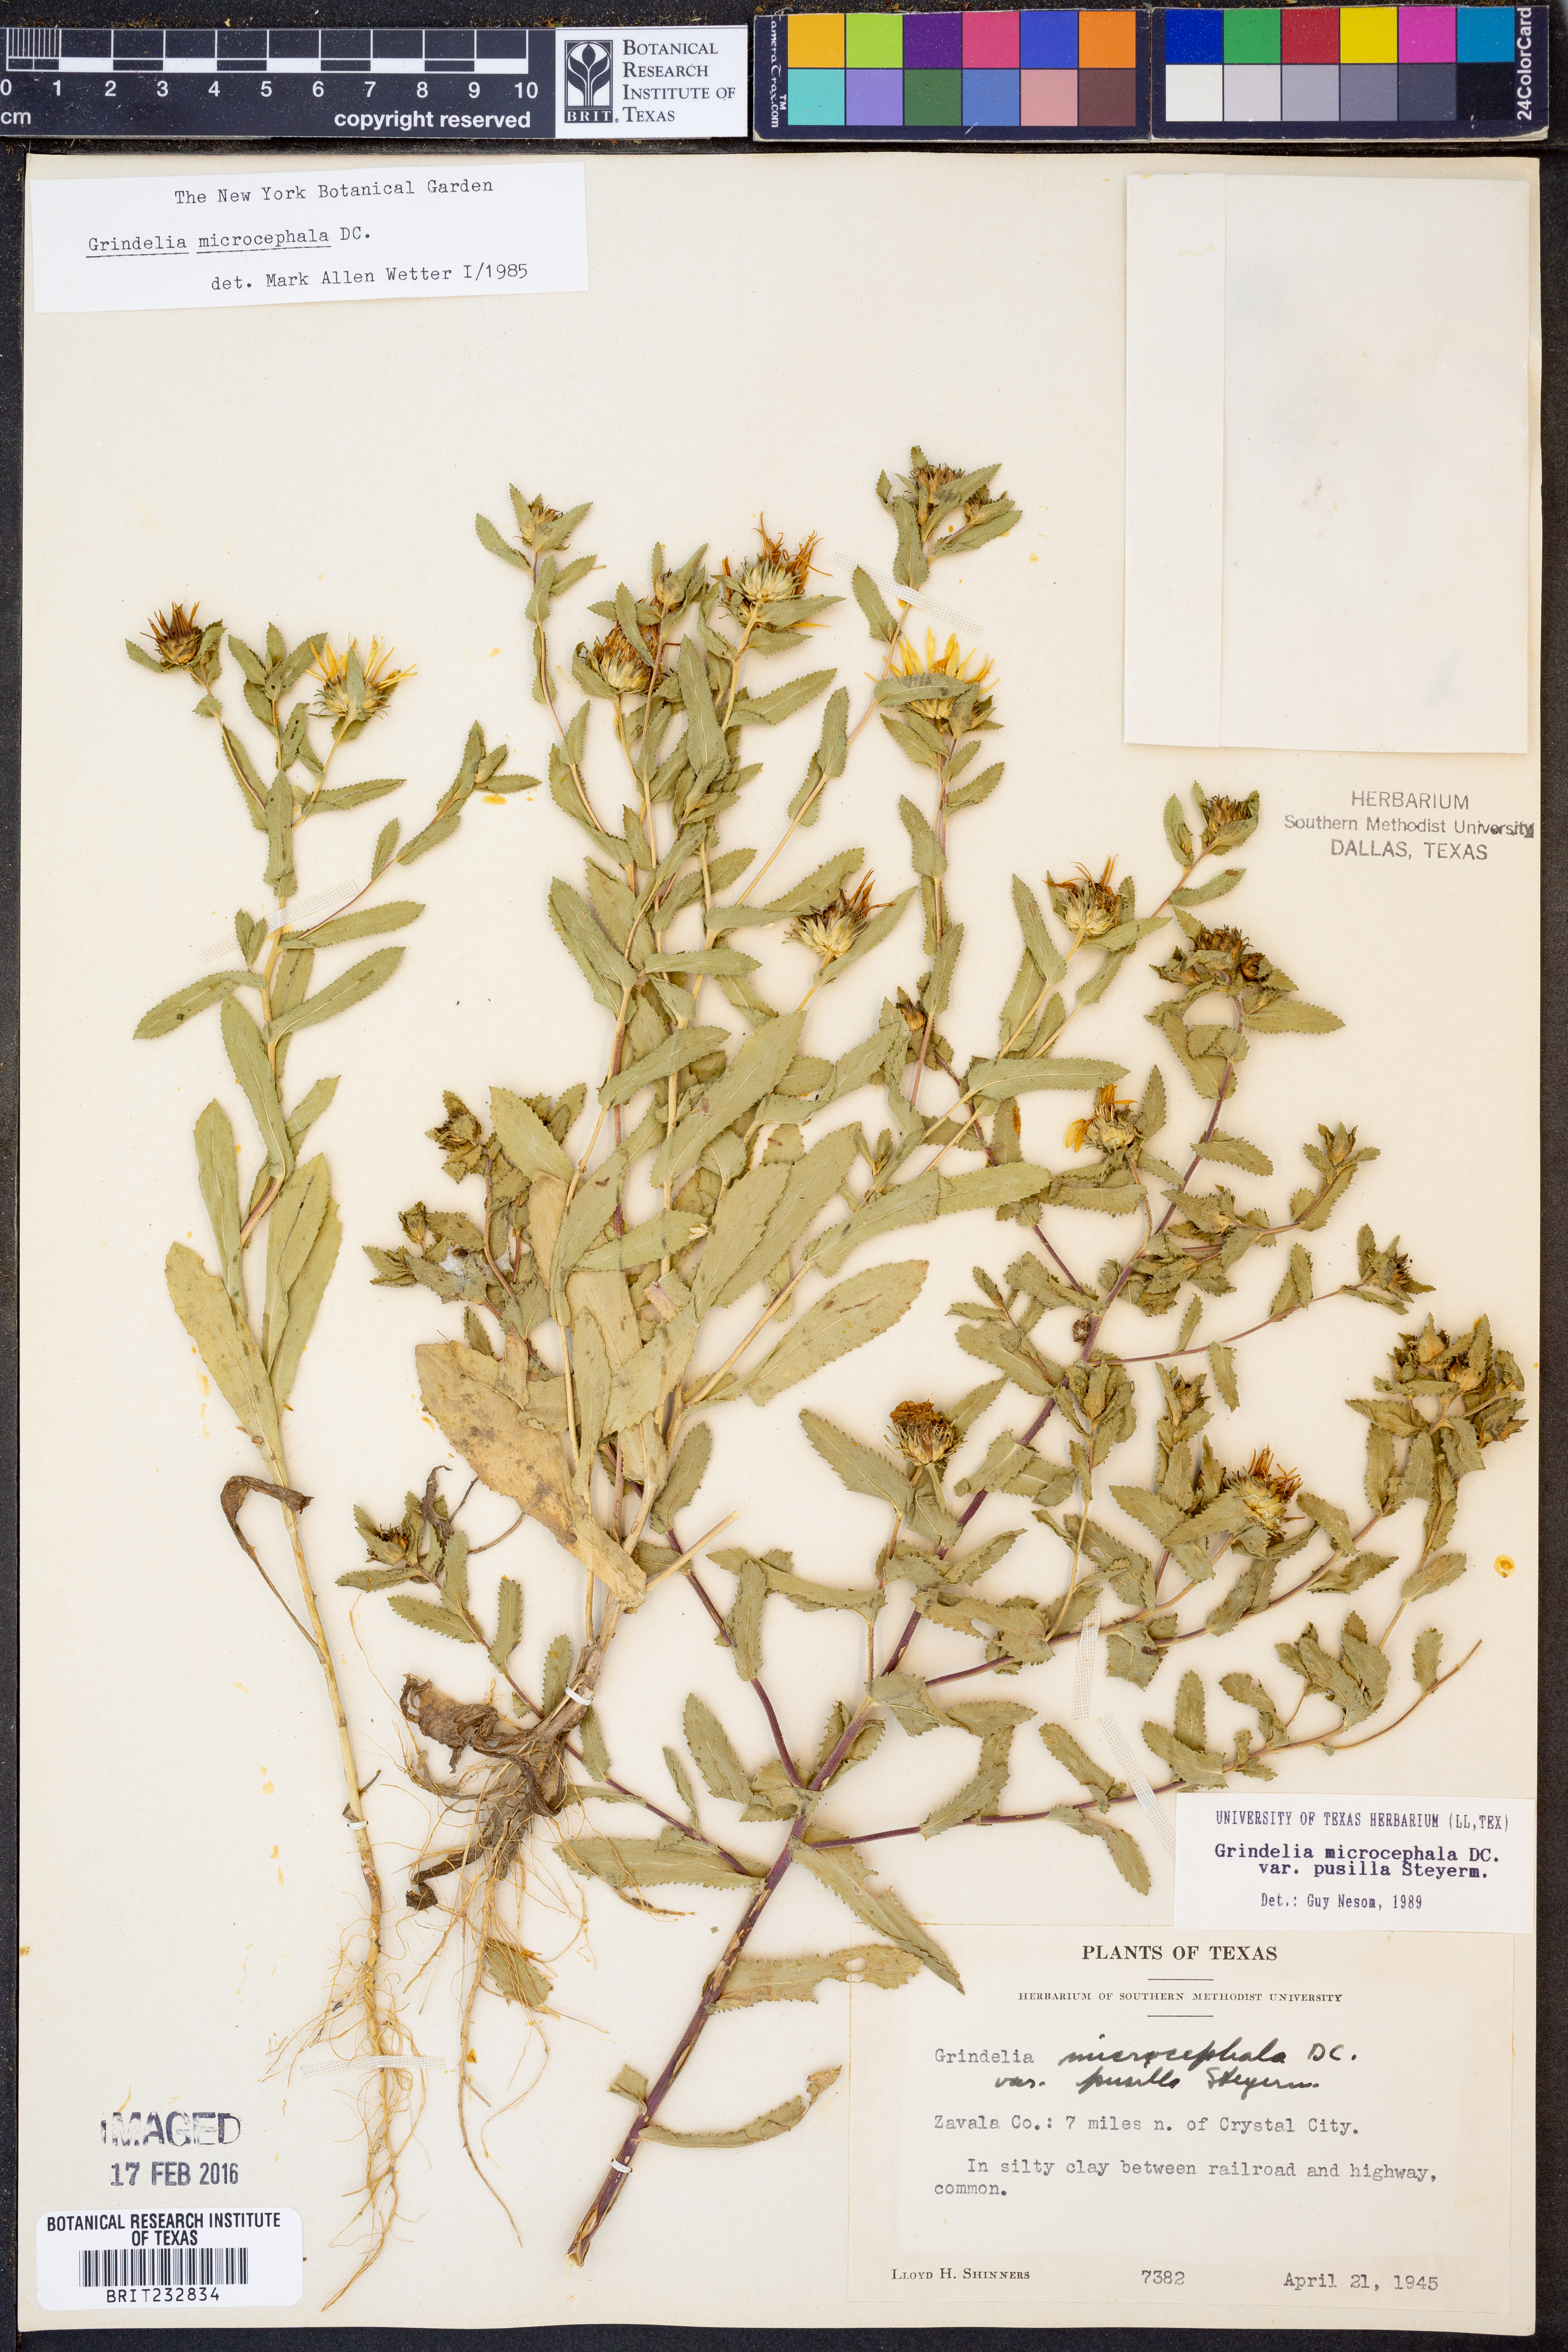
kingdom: Plantae
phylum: Tracheophyta
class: Magnoliopsida
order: Asterales
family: Asteraceae
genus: Grindelia
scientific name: Grindelia pusilla
